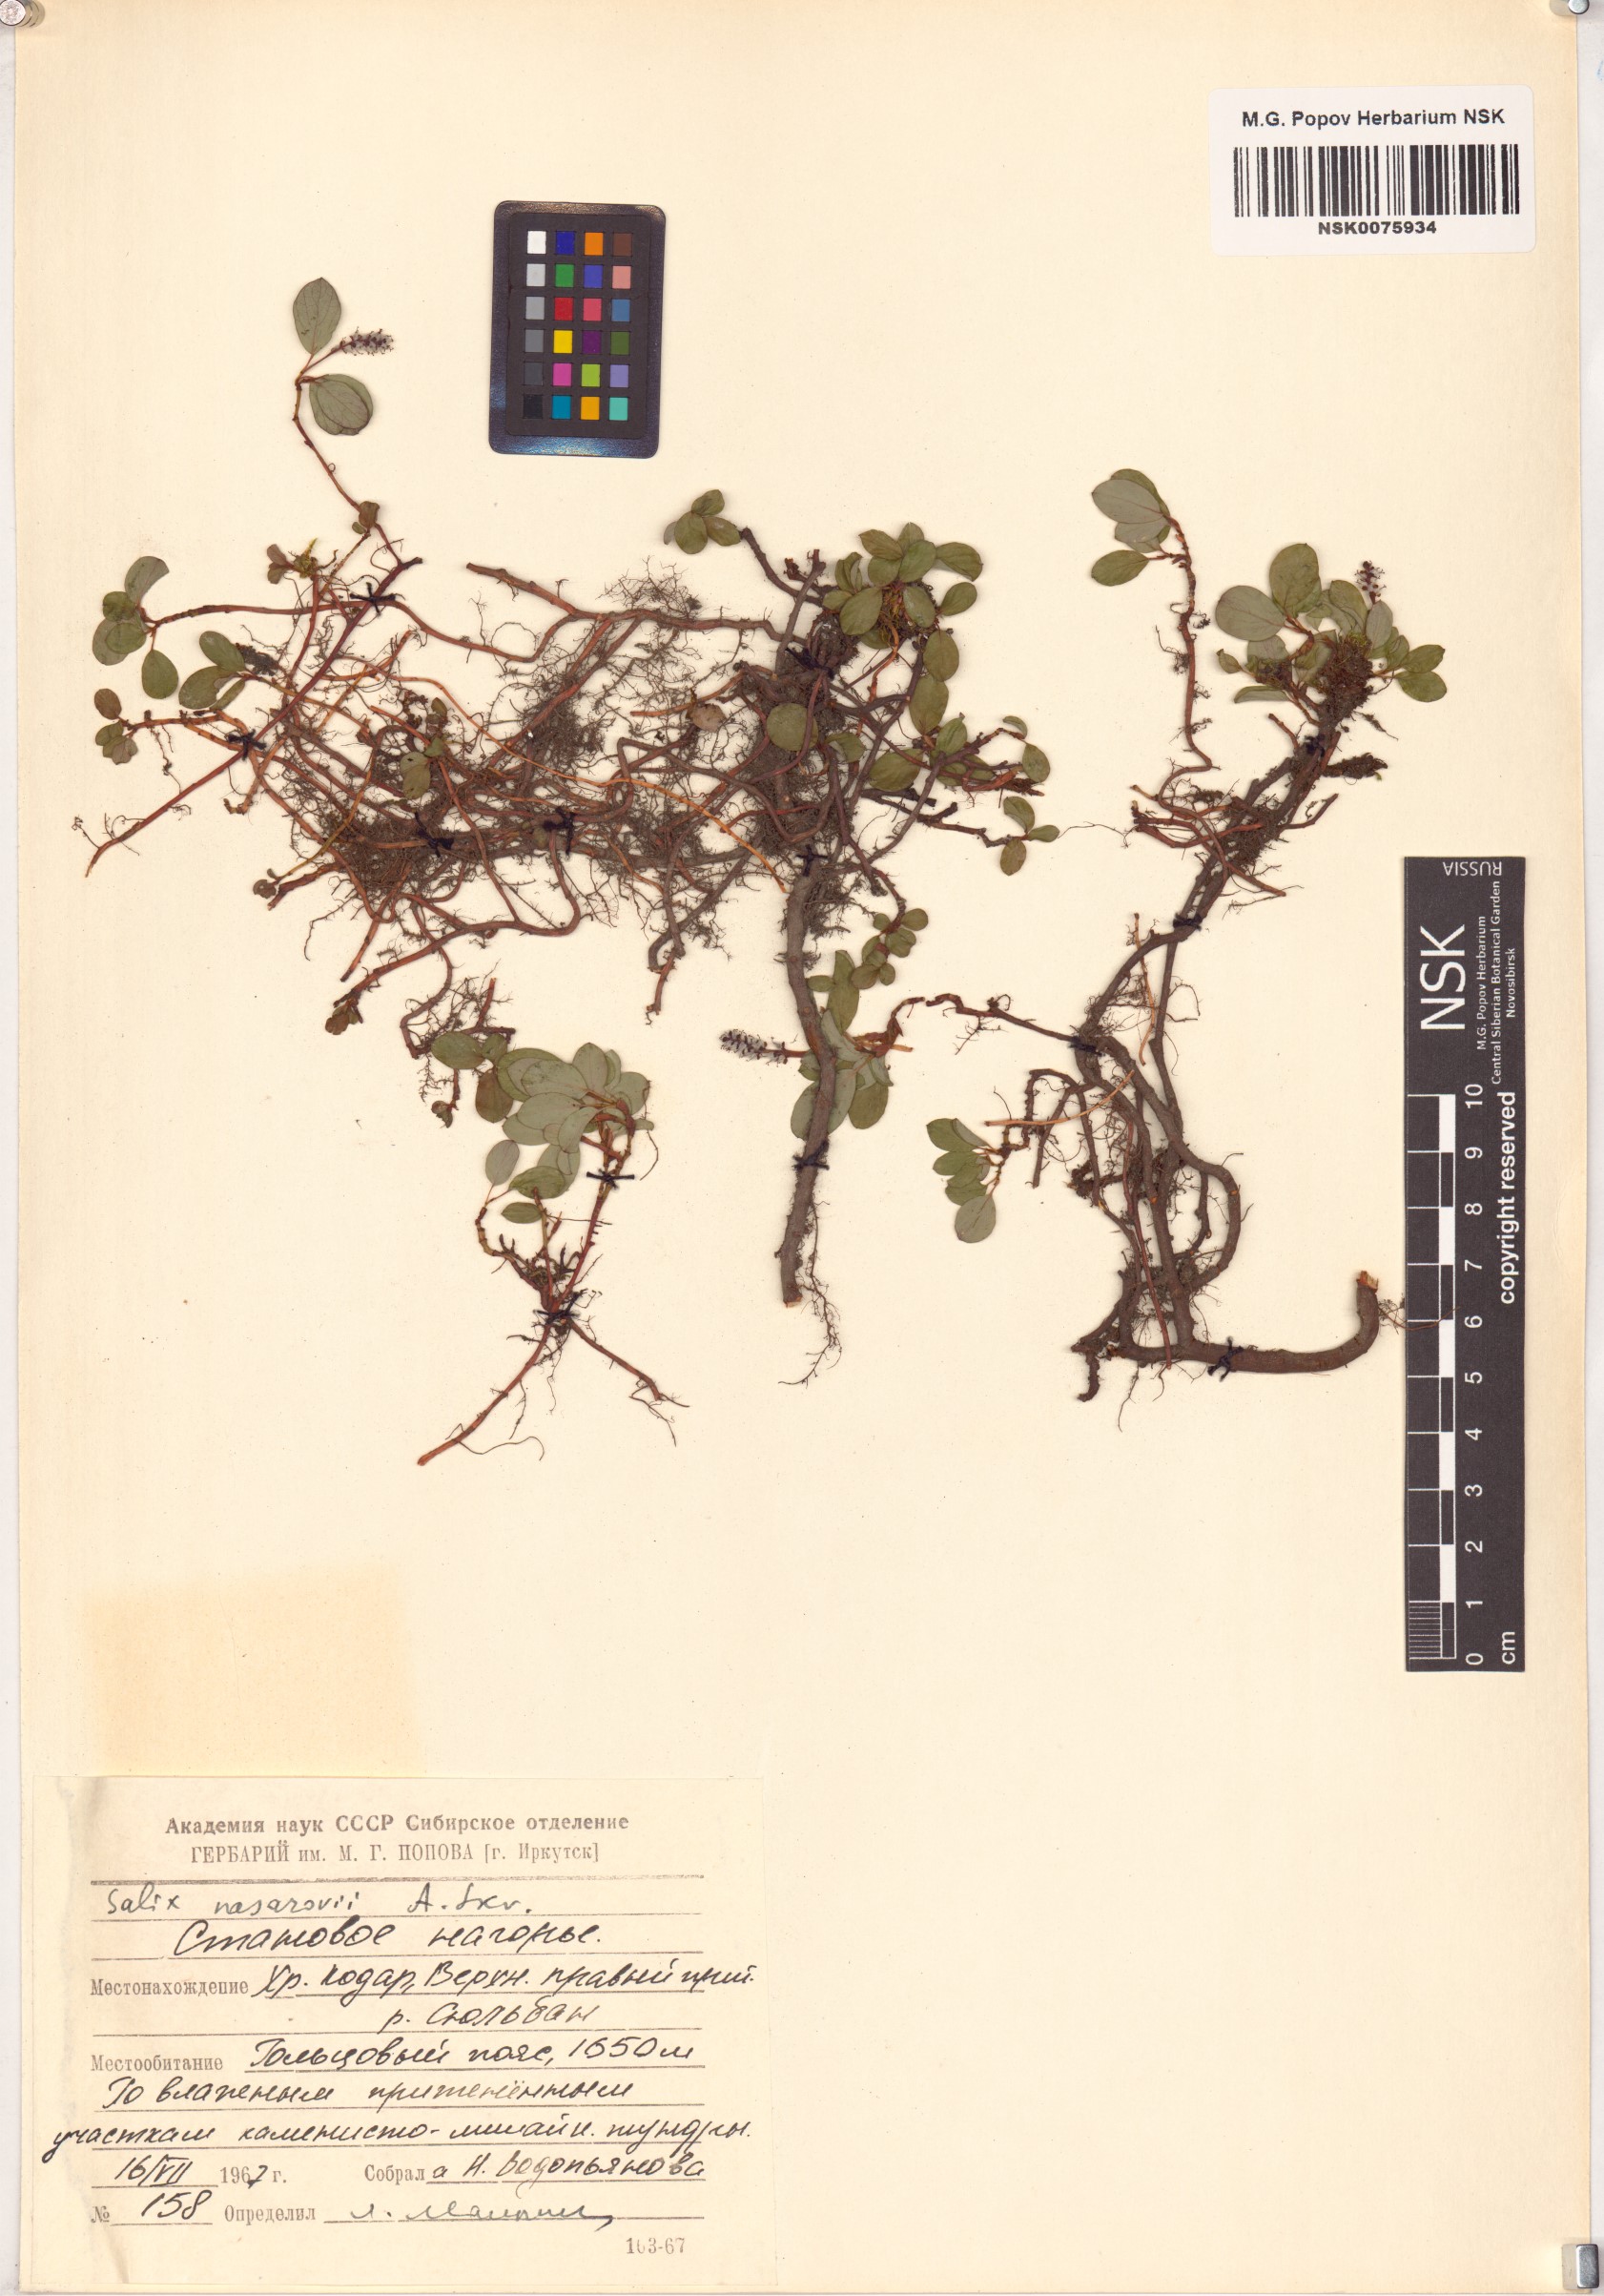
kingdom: Plantae
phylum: Tracheophyta
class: Magnoliopsida
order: Malpighiales
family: Salicaceae
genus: Salix
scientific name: Salix nasarovii
